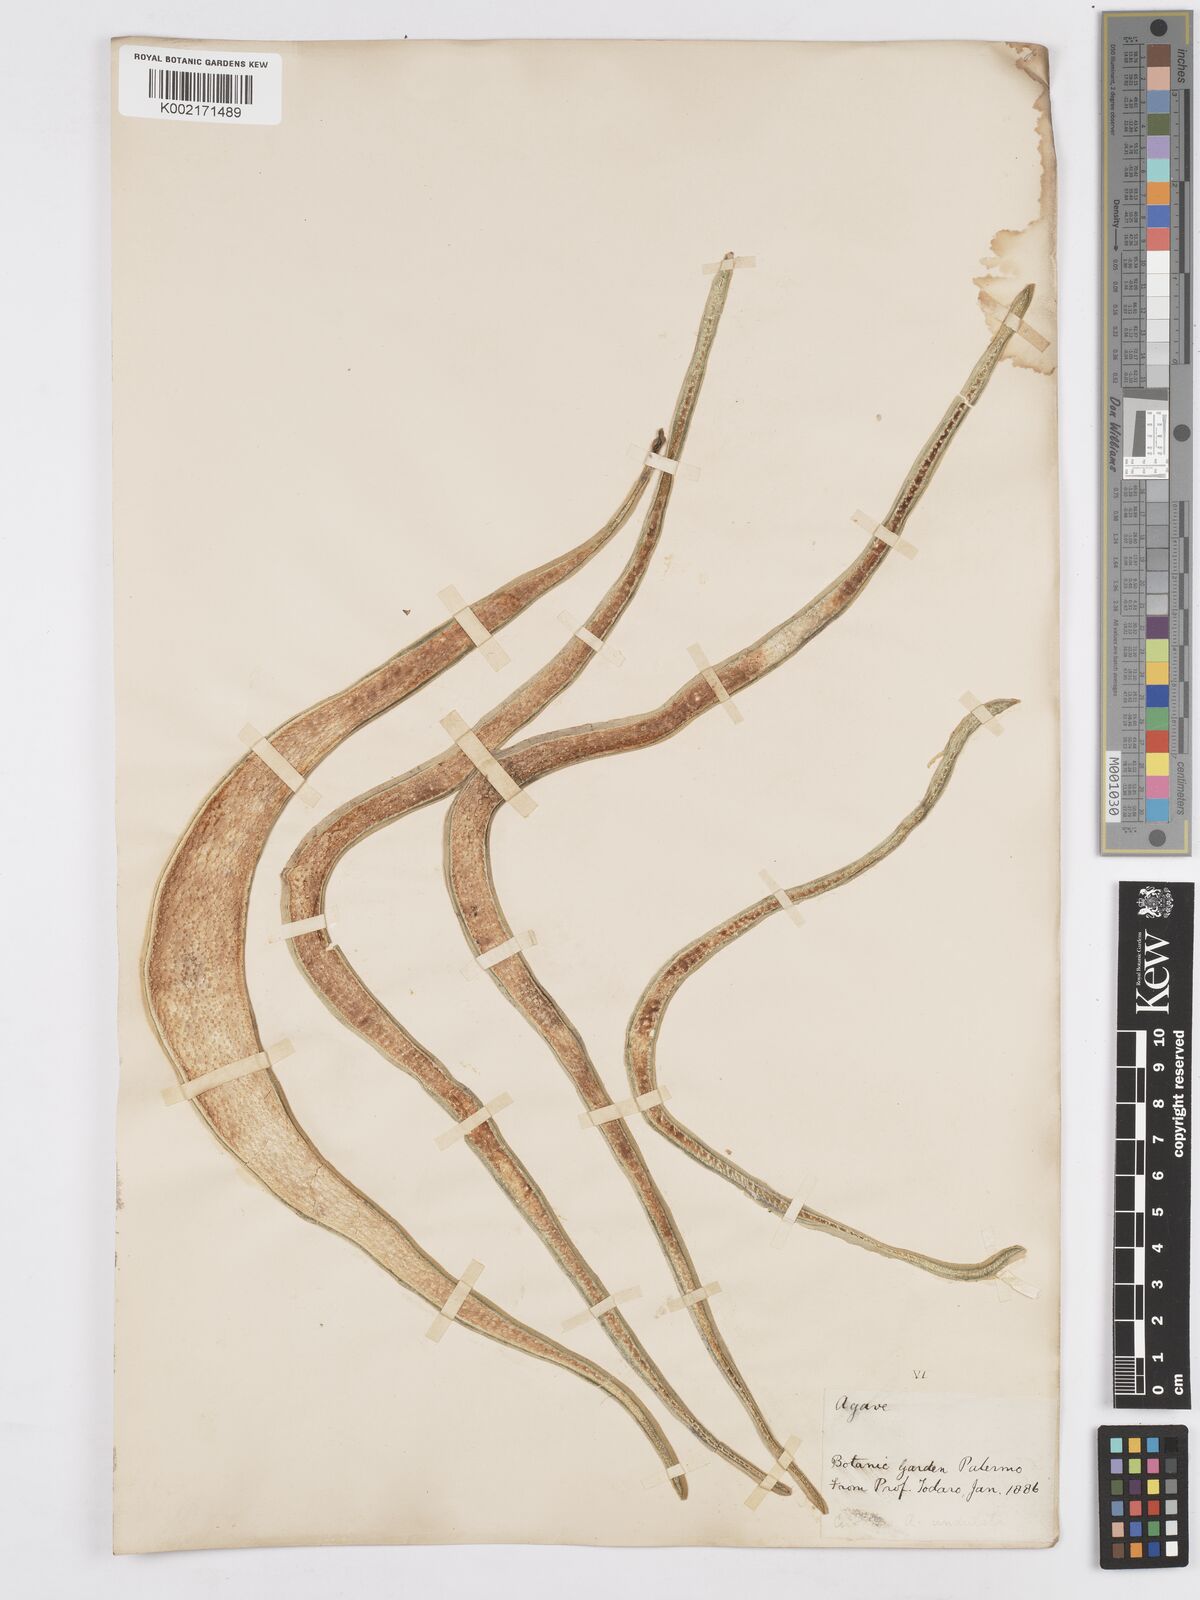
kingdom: Plantae
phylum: Tracheophyta
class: Liliopsida
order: Asparagales
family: Asparagaceae
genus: Agave
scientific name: Agave marmorata
